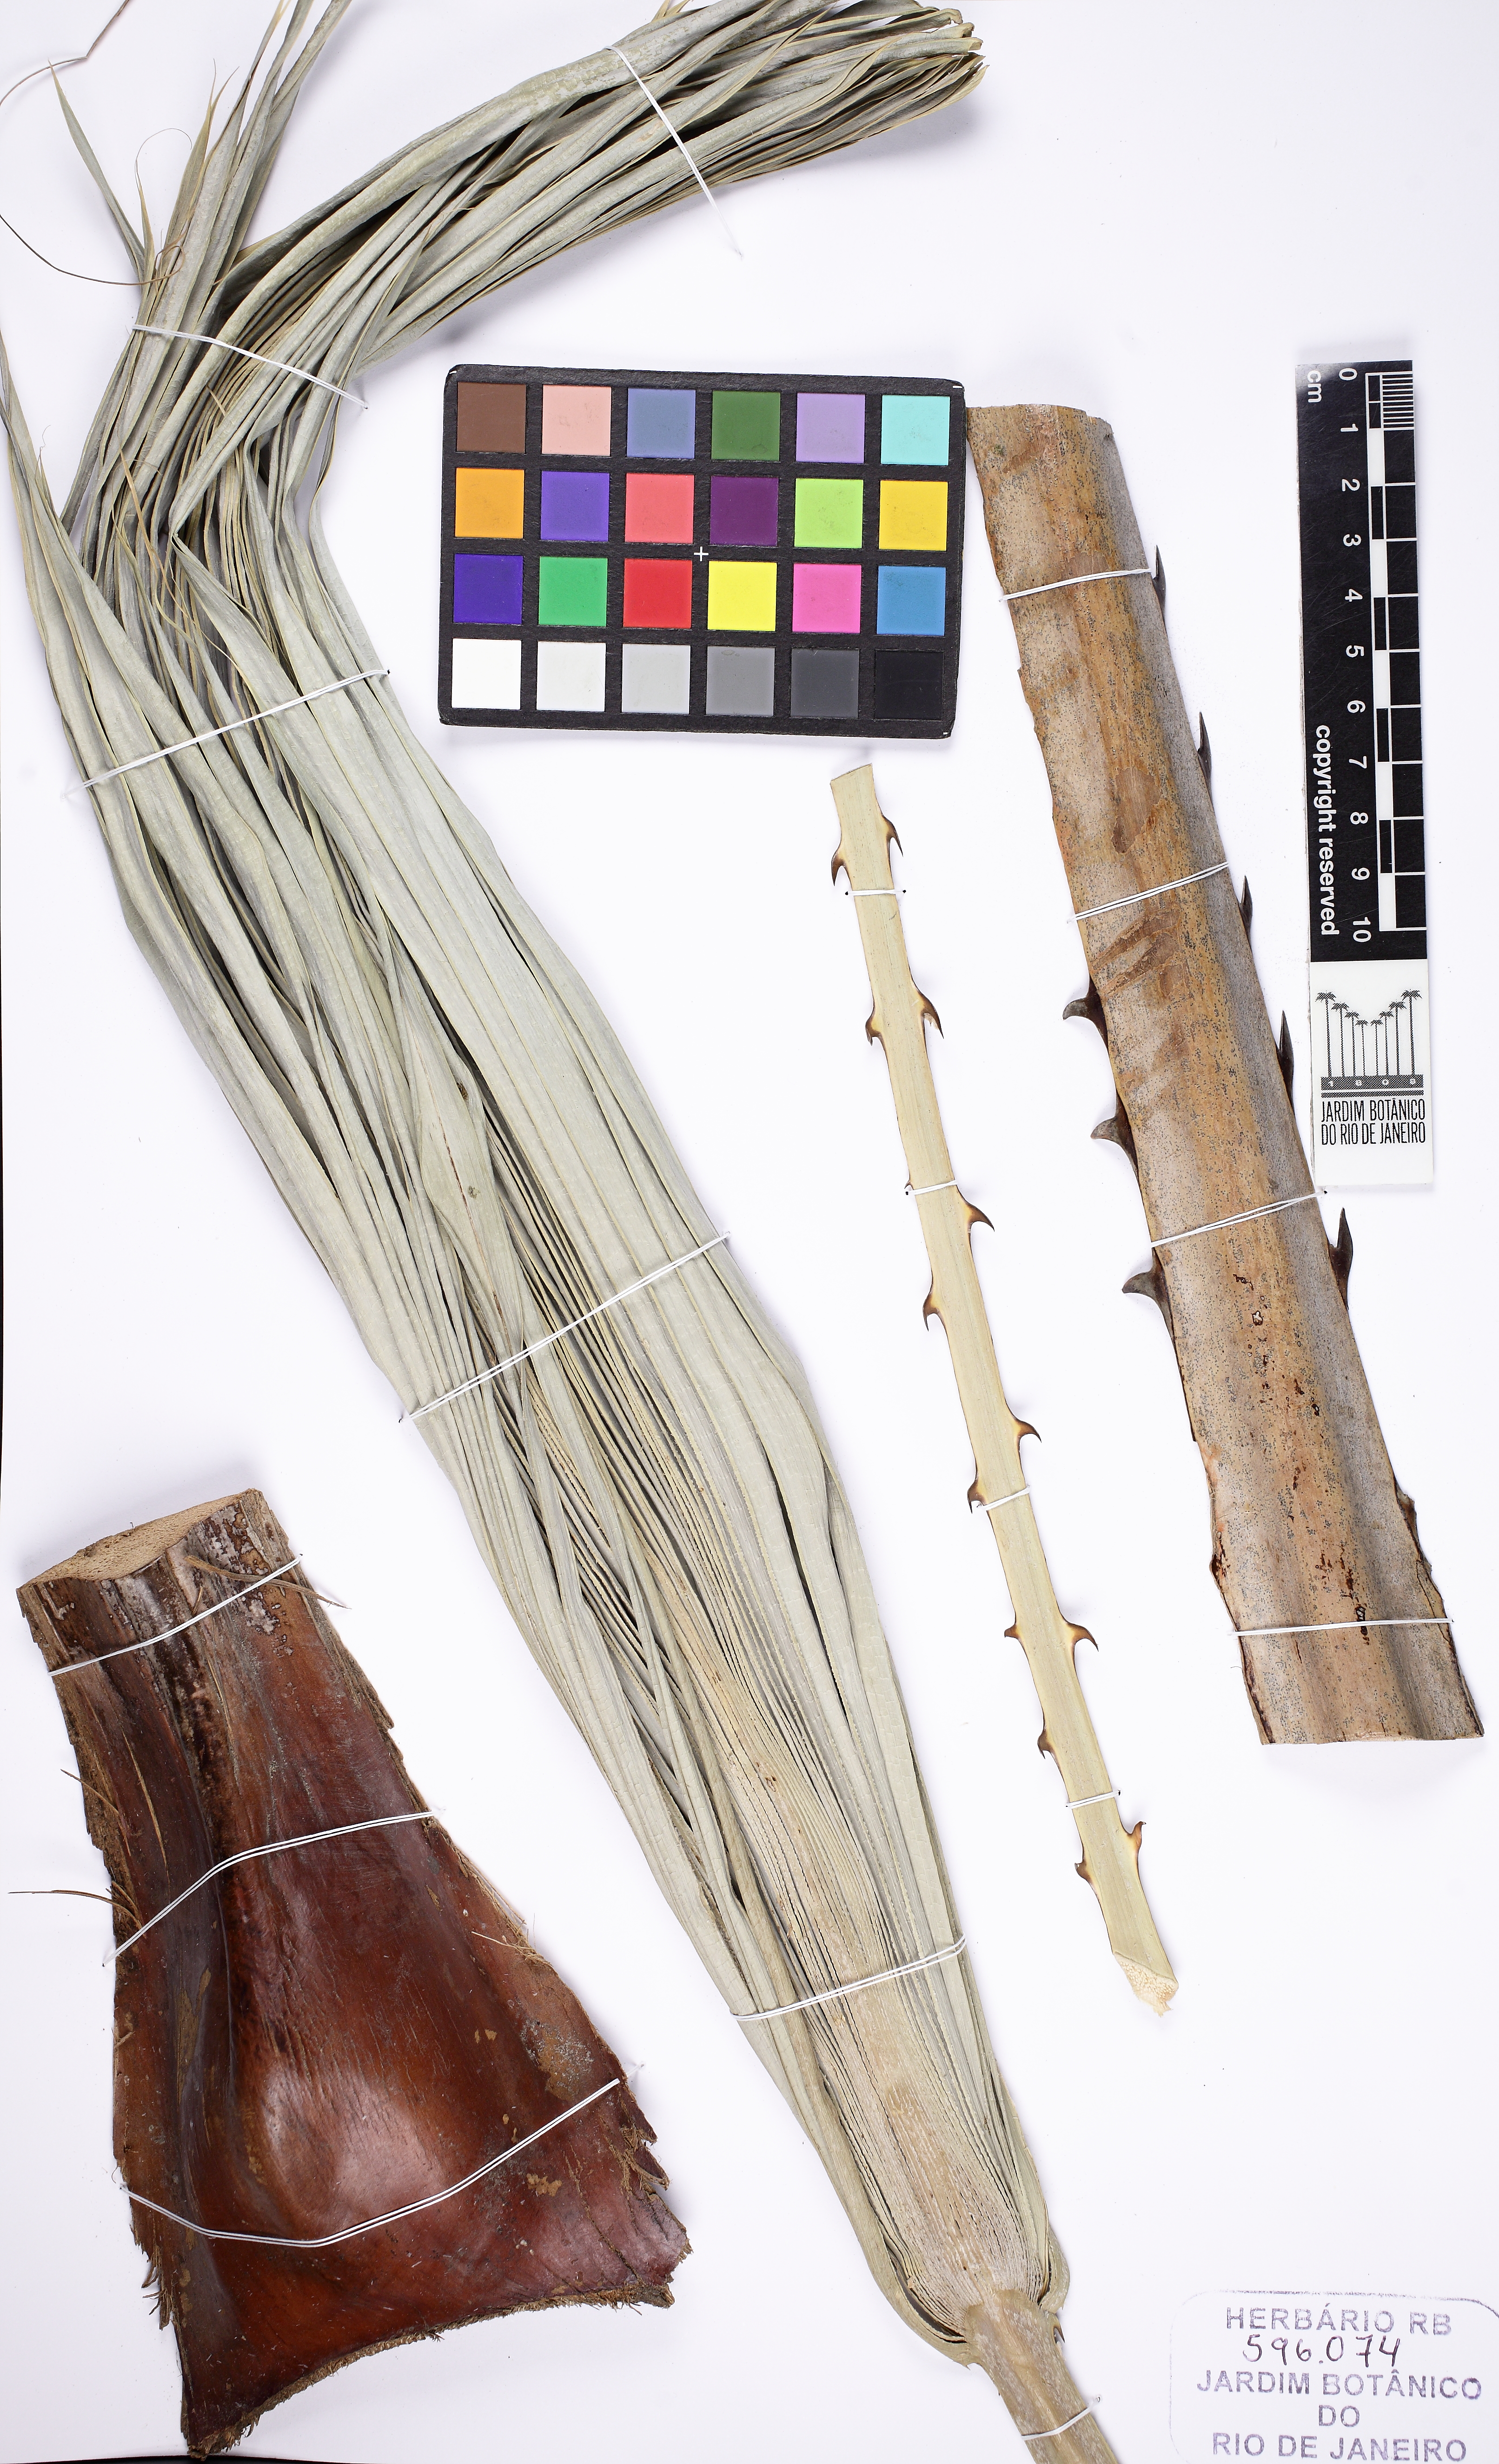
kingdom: Plantae
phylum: Tracheophyta
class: Liliopsida
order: Arecales
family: Arecaceae
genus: Copernicia
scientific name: Copernicia prunifera
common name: Carnauba palm
